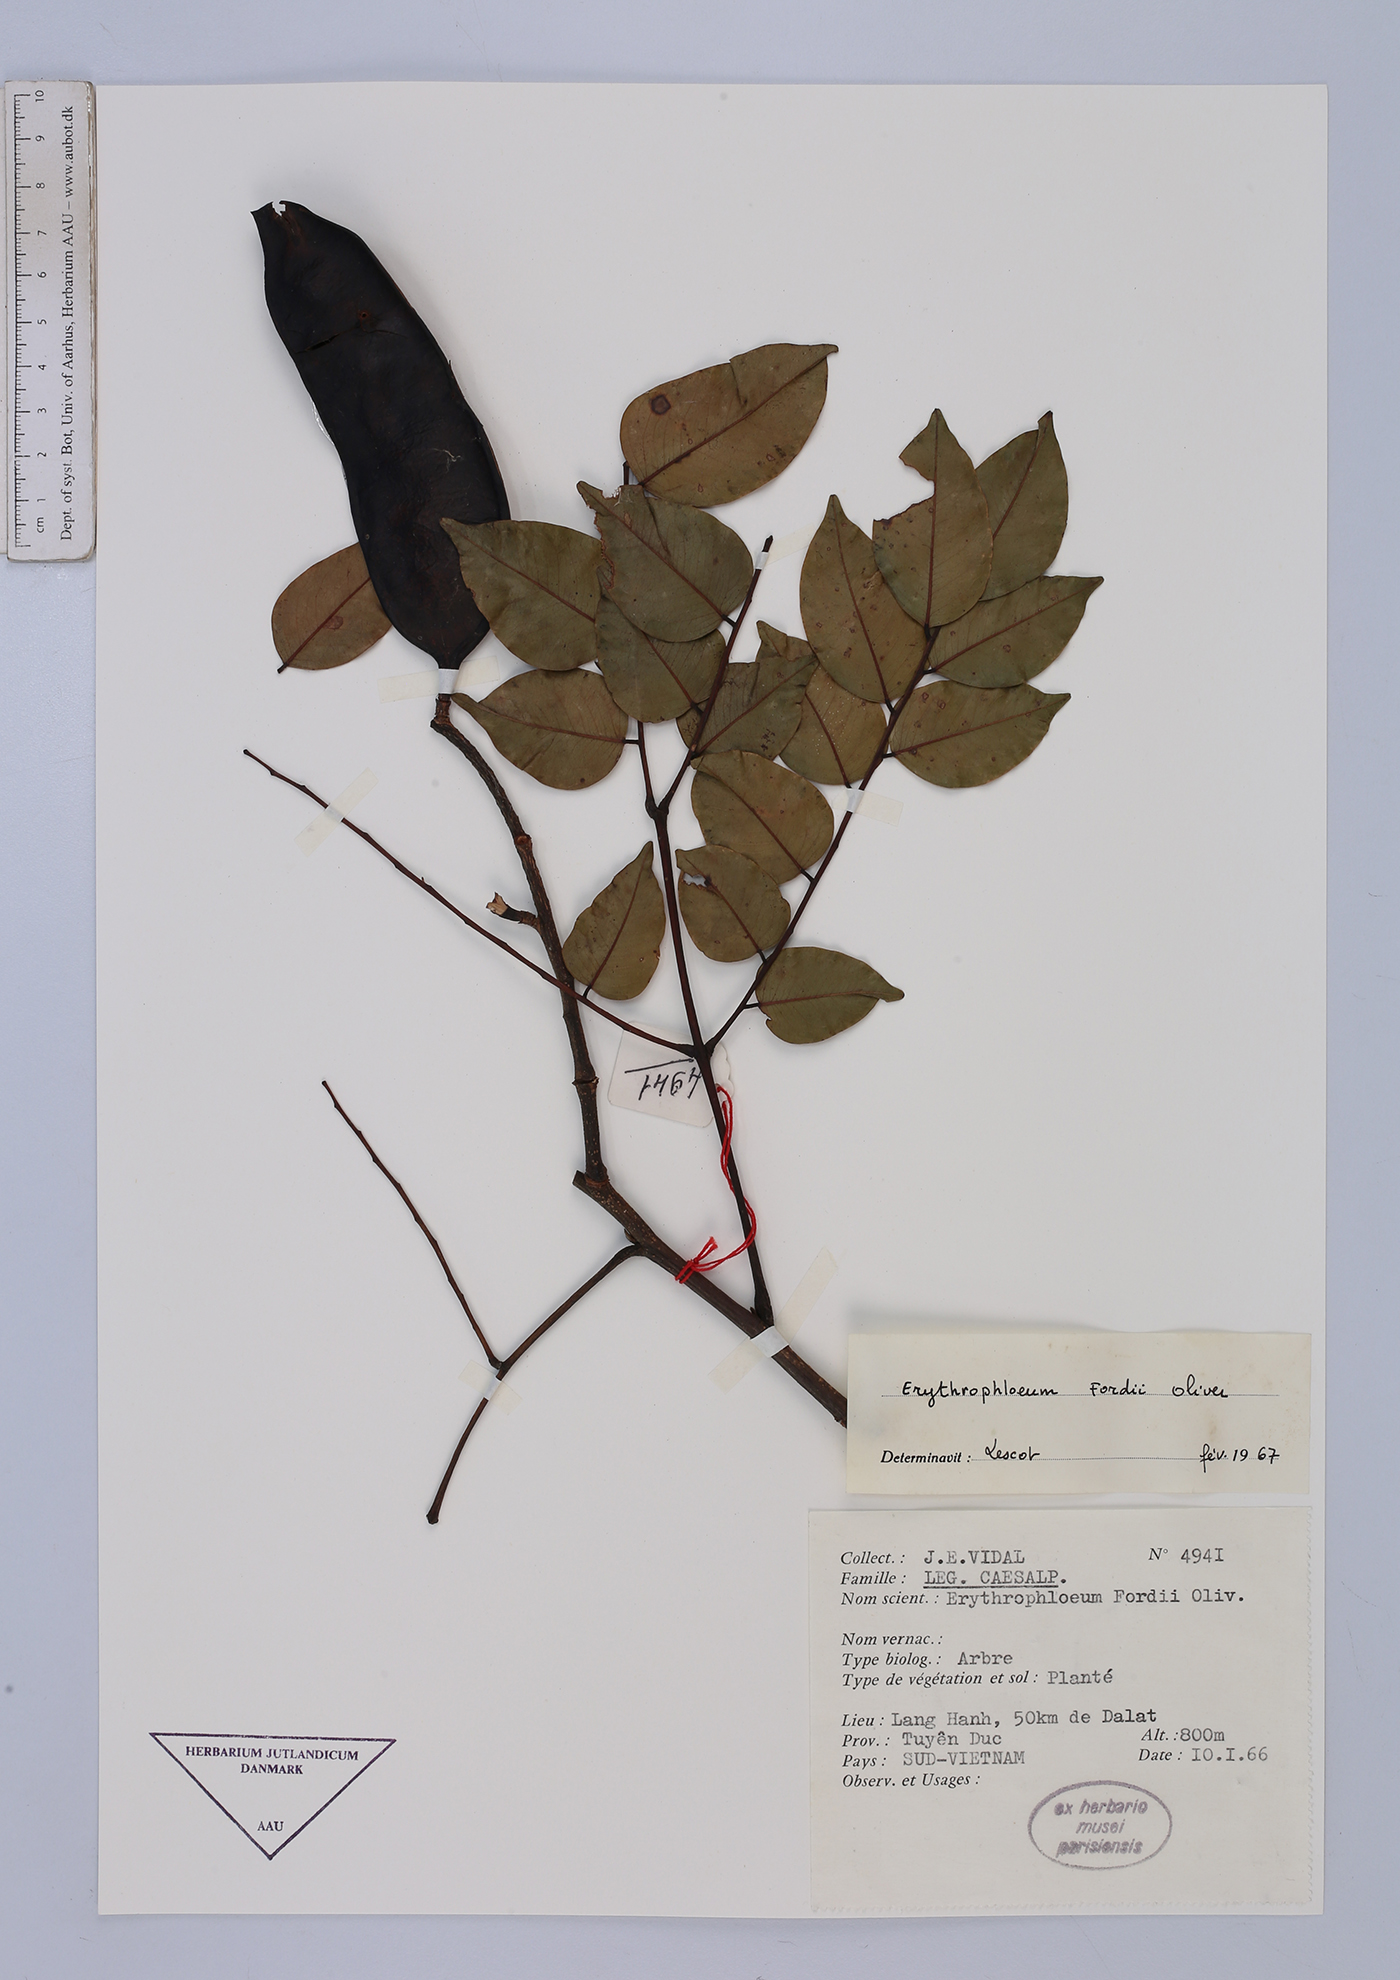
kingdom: Plantae
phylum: Tracheophyta
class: Magnoliopsida
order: Fabales
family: Fabaceae
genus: Erythrophleum
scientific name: Erythrophleum fordii
